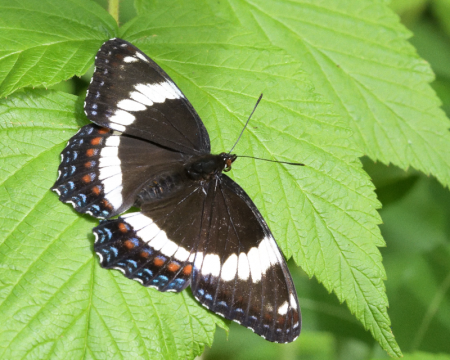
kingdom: Animalia
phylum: Arthropoda
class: Insecta
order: Lepidoptera
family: Nymphalidae
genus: Limenitis
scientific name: Limenitis arthemis
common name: Red-spotted Admiral
